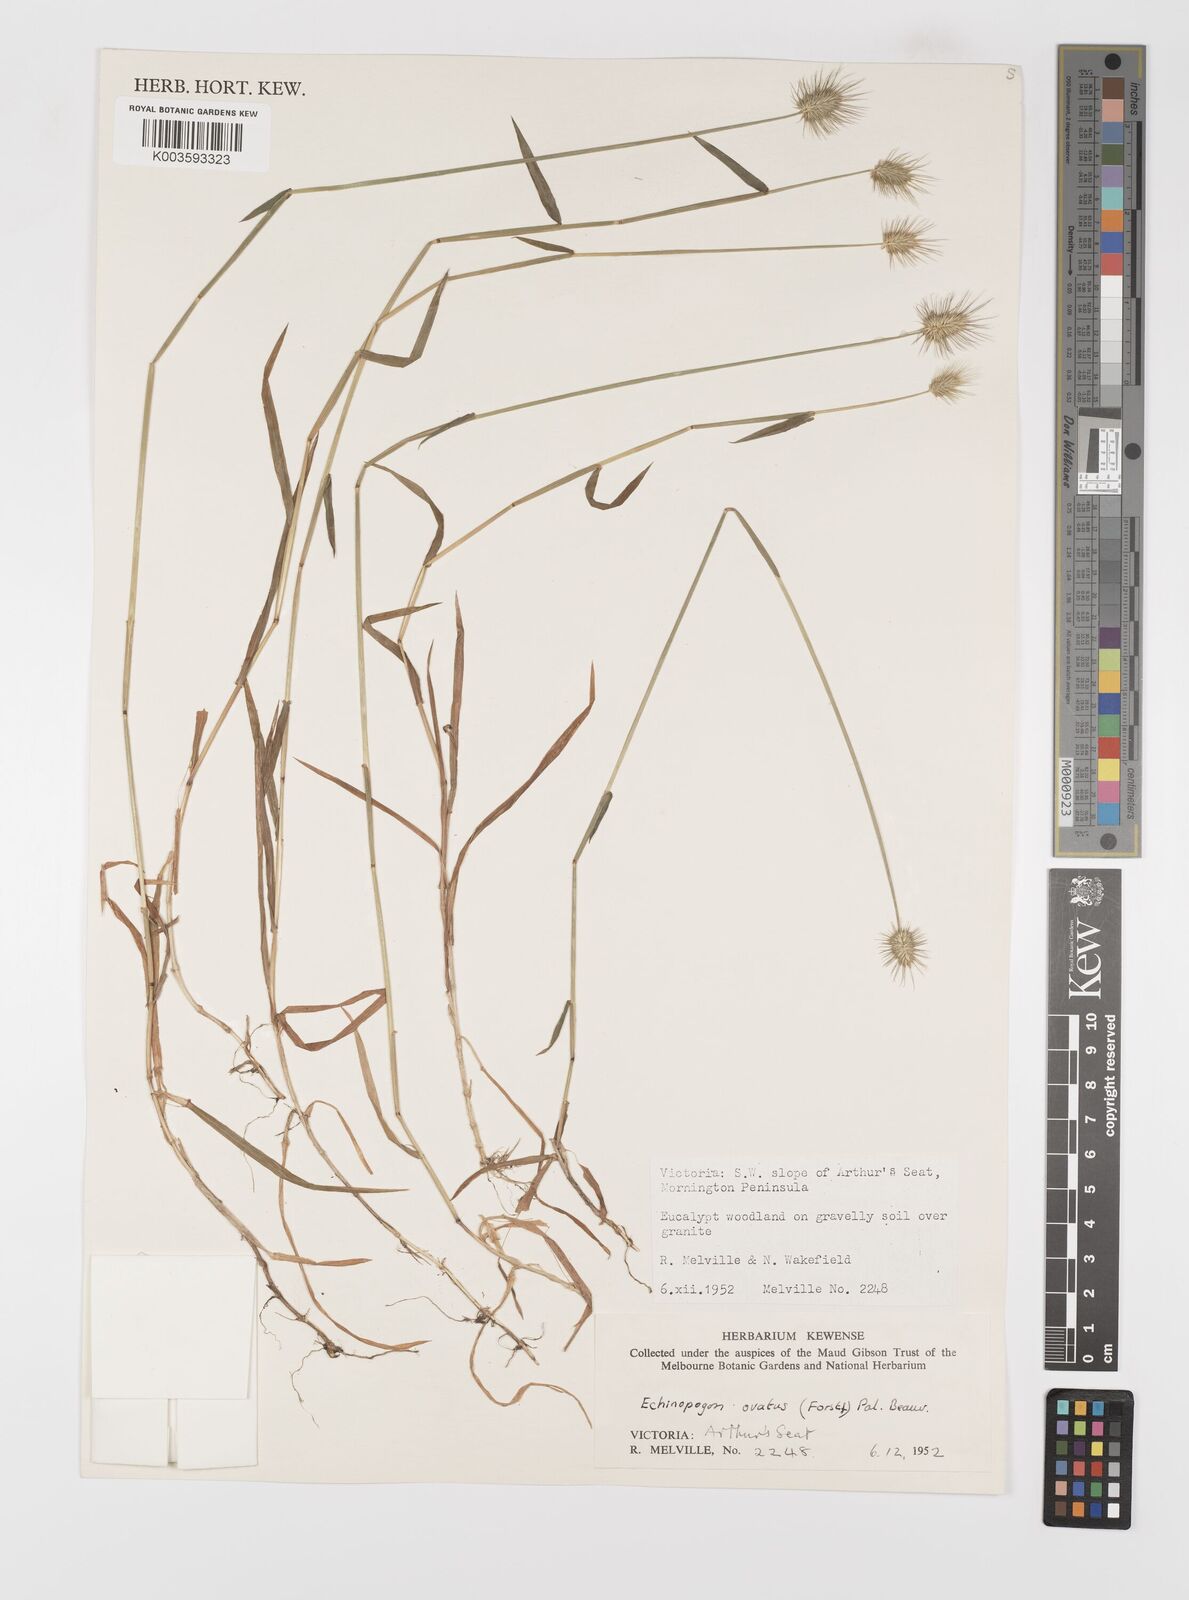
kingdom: Plantae
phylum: Tracheophyta
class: Liliopsida
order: Poales
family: Poaceae
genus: Echinopogon
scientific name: Echinopogon ovatus
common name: Hedgehog-grass
